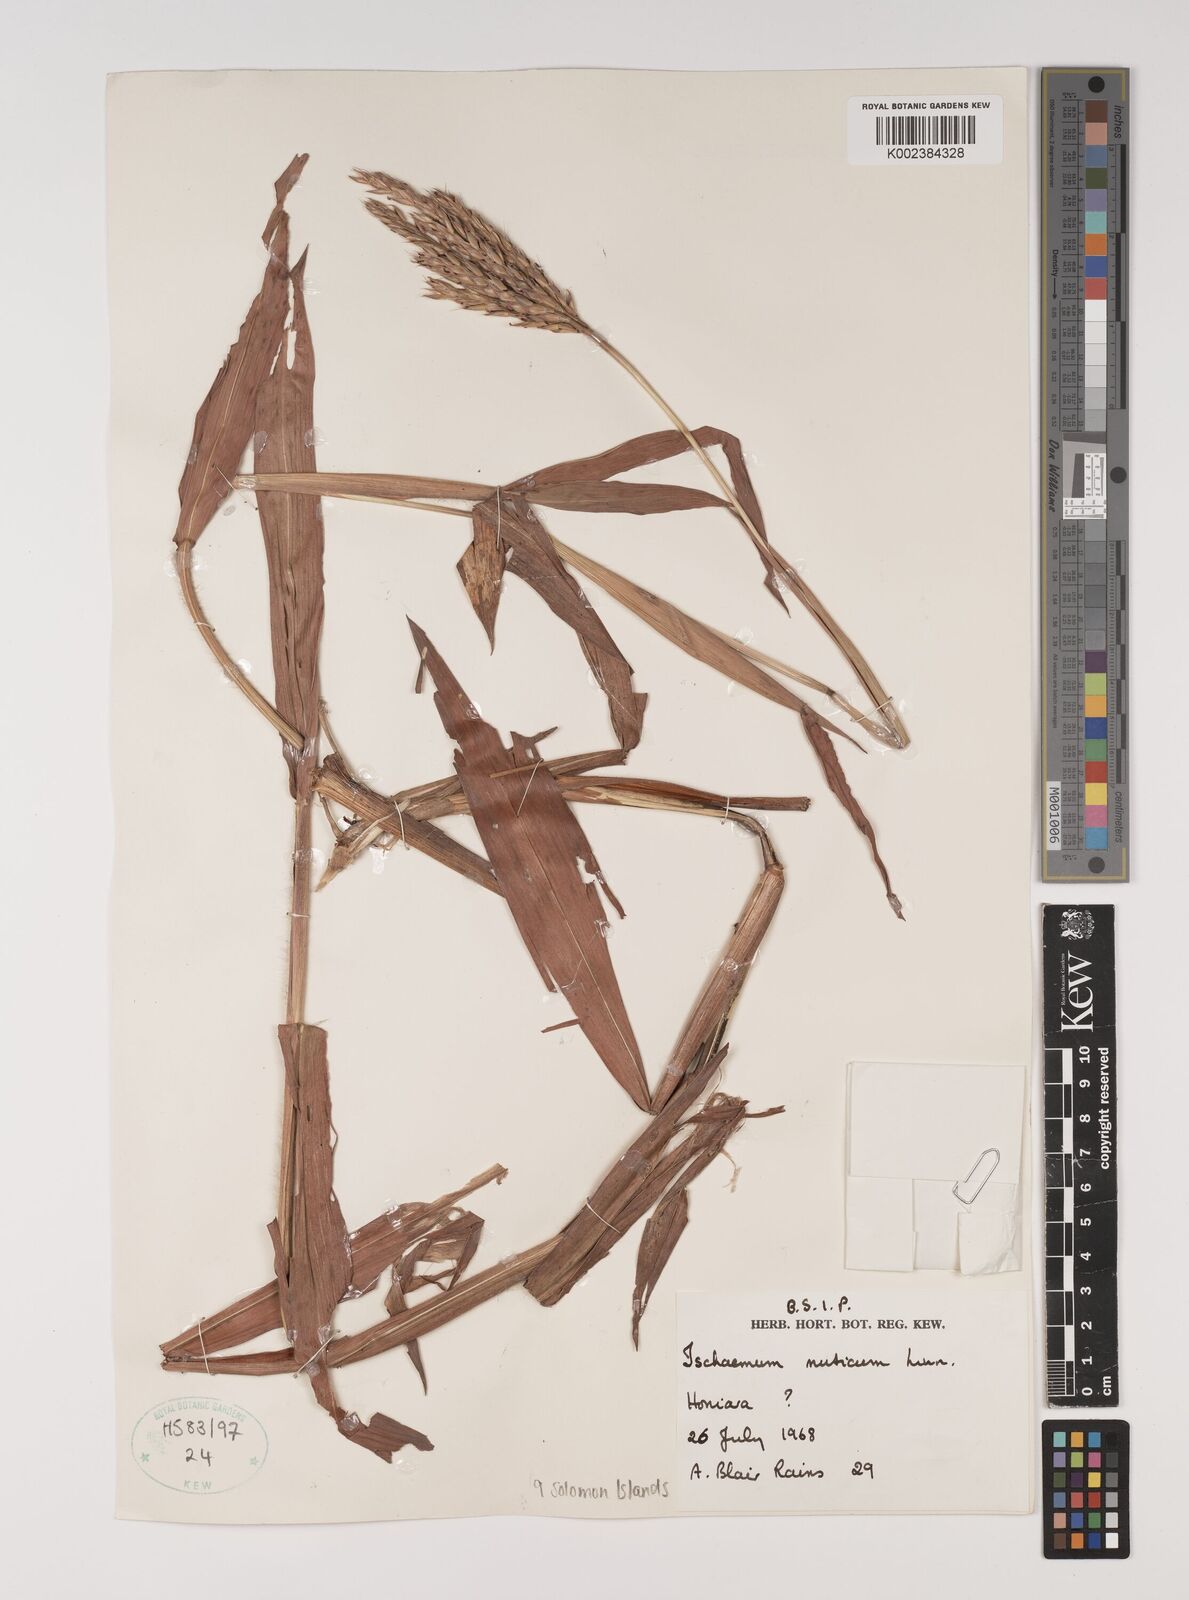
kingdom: Plantae
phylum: Tracheophyta
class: Liliopsida
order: Poales
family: Poaceae
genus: Ischaemum
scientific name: Ischaemum muticum
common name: Drought grass
